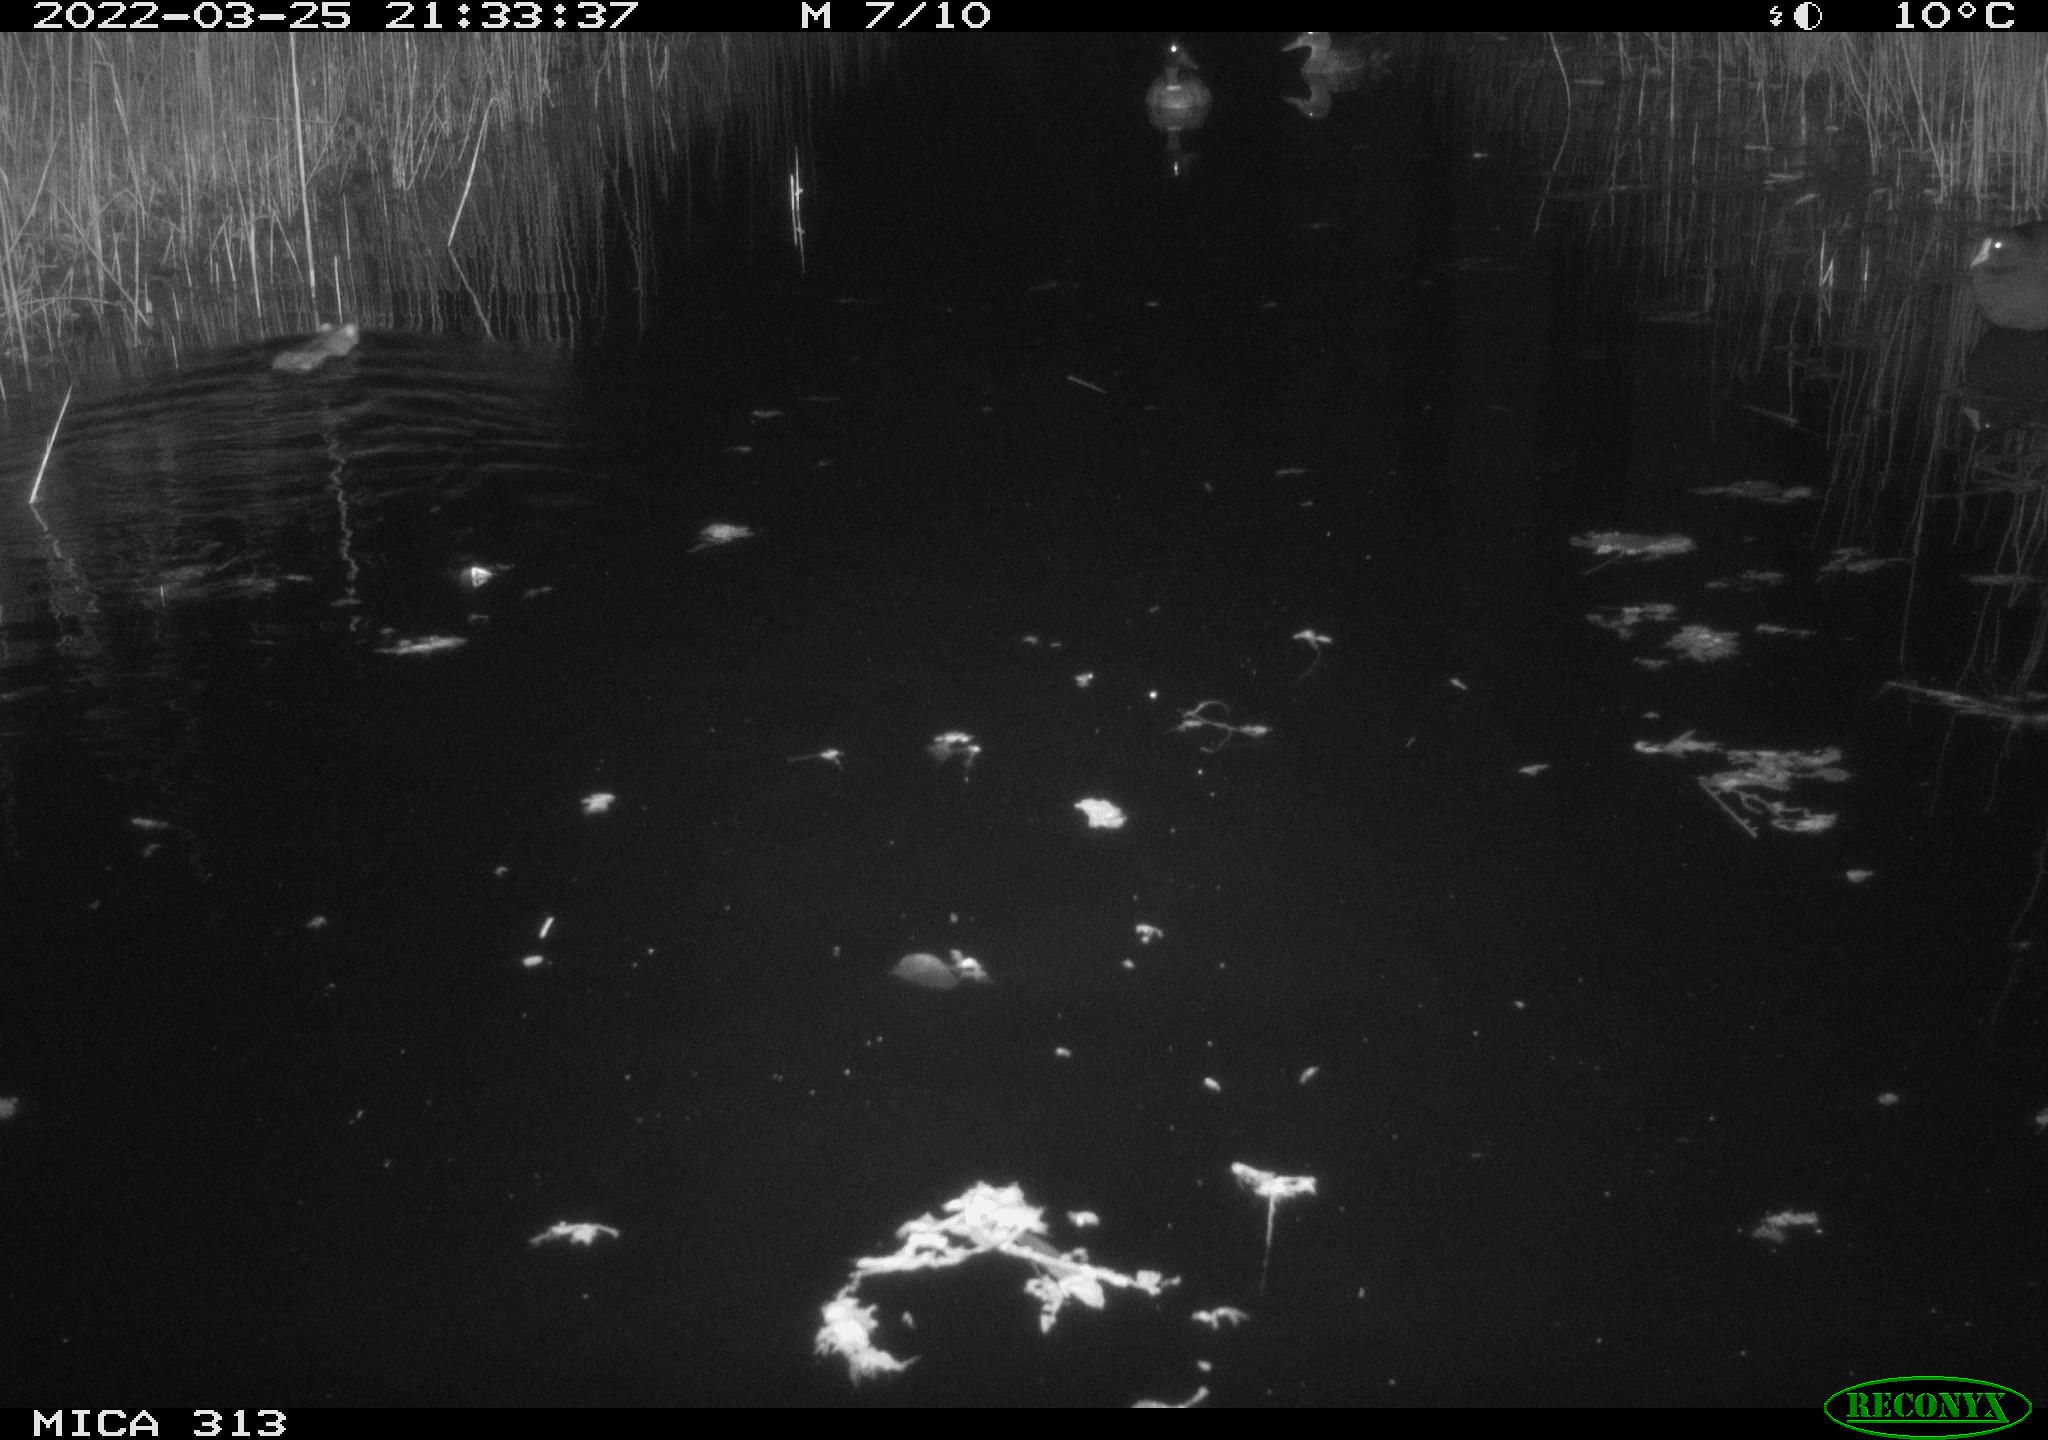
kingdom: Animalia
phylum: Chordata
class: Aves
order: Anseriformes
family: Anatidae
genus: Anas
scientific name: Anas platyrhynchos
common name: Mallard
